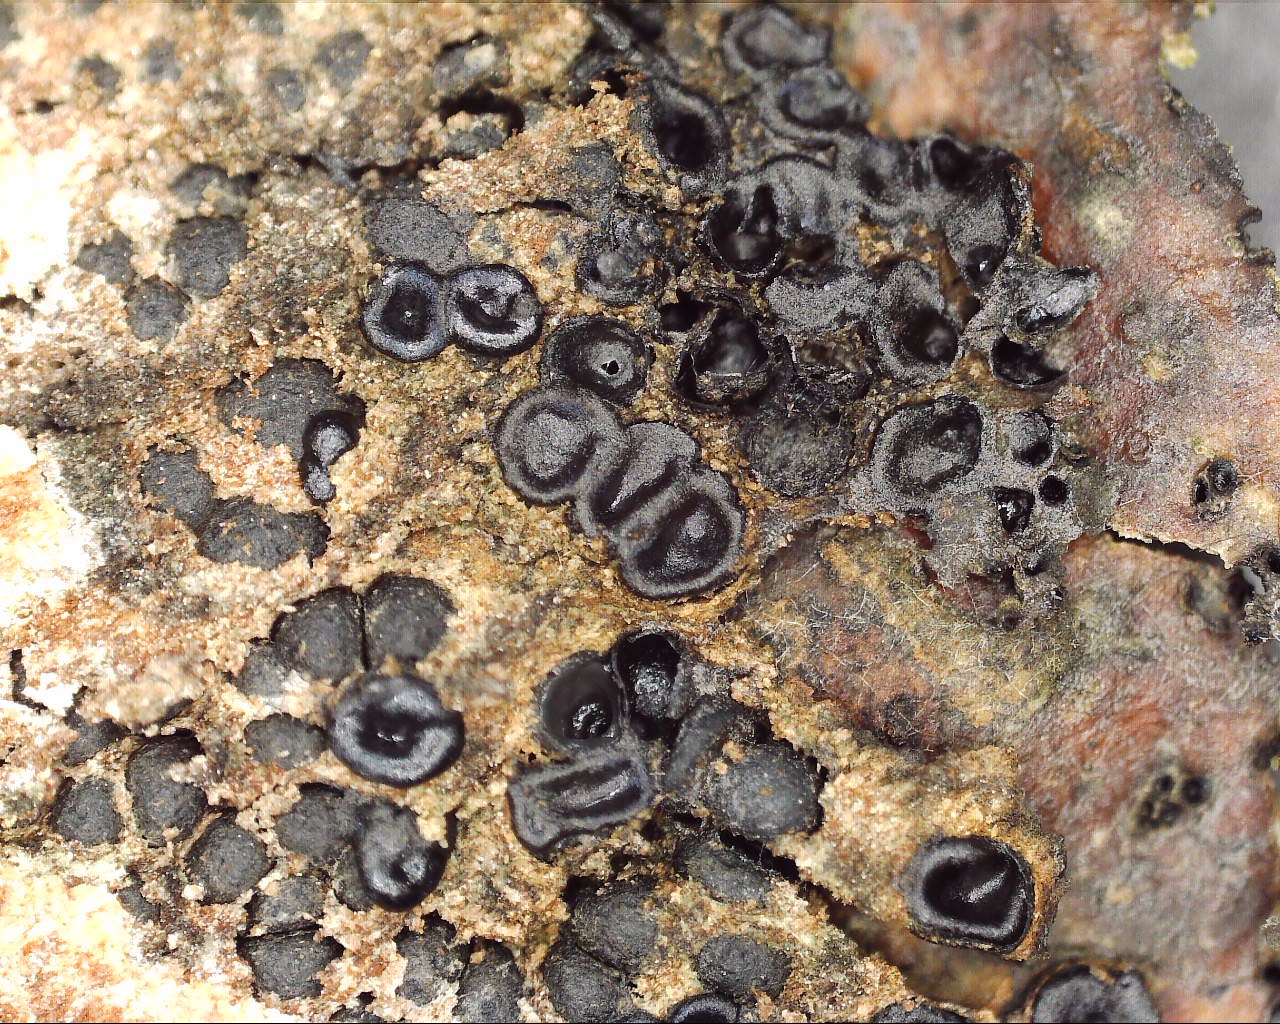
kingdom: Fungi
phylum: Ascomycota
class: Sordariomycetes
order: Xylariales
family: Diatrypaceae
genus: Eutypella
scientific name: Eutypella quaternata
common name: bøge-korsprik
